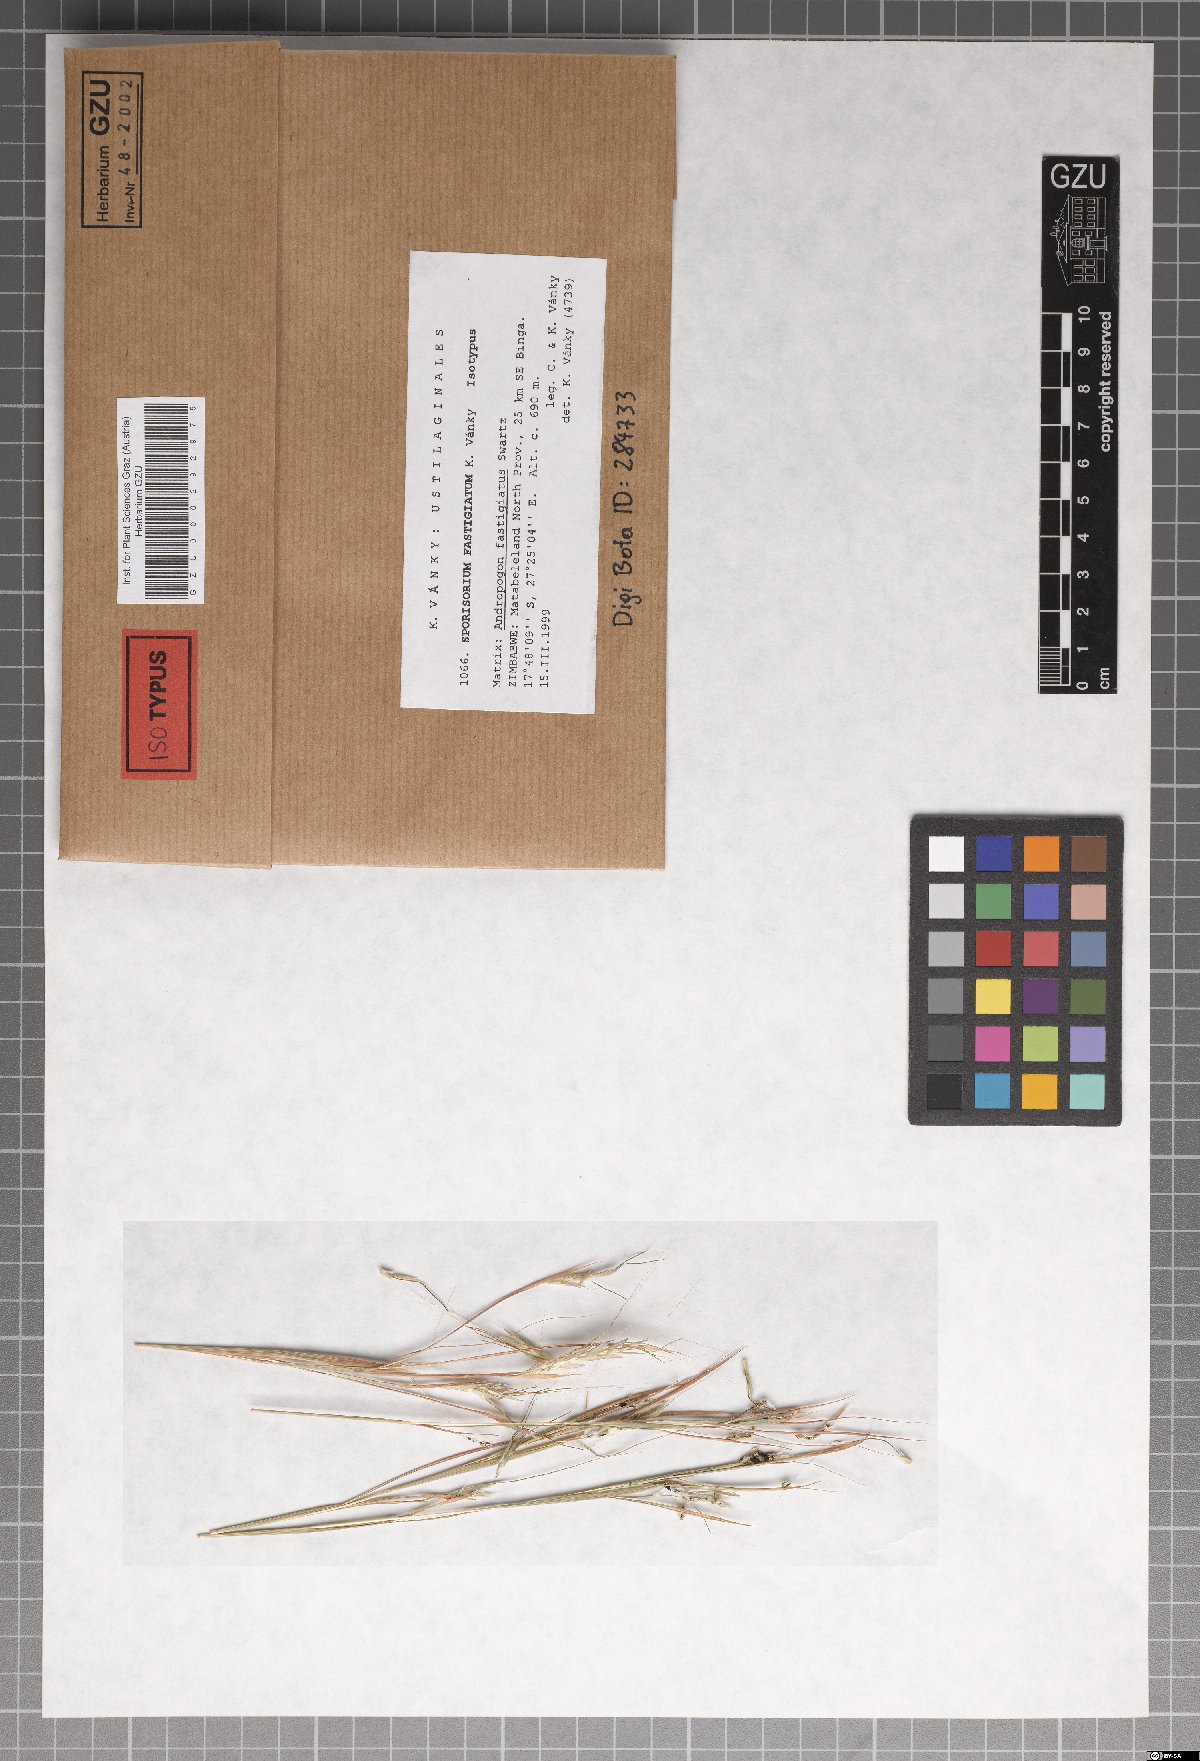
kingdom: Fungi
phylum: Basidiomycota
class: Ustilaginomycetes
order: Ustilaginales
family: Ustilaginaceae
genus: Sporisorium
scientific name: Sporisorium fastigiatum
